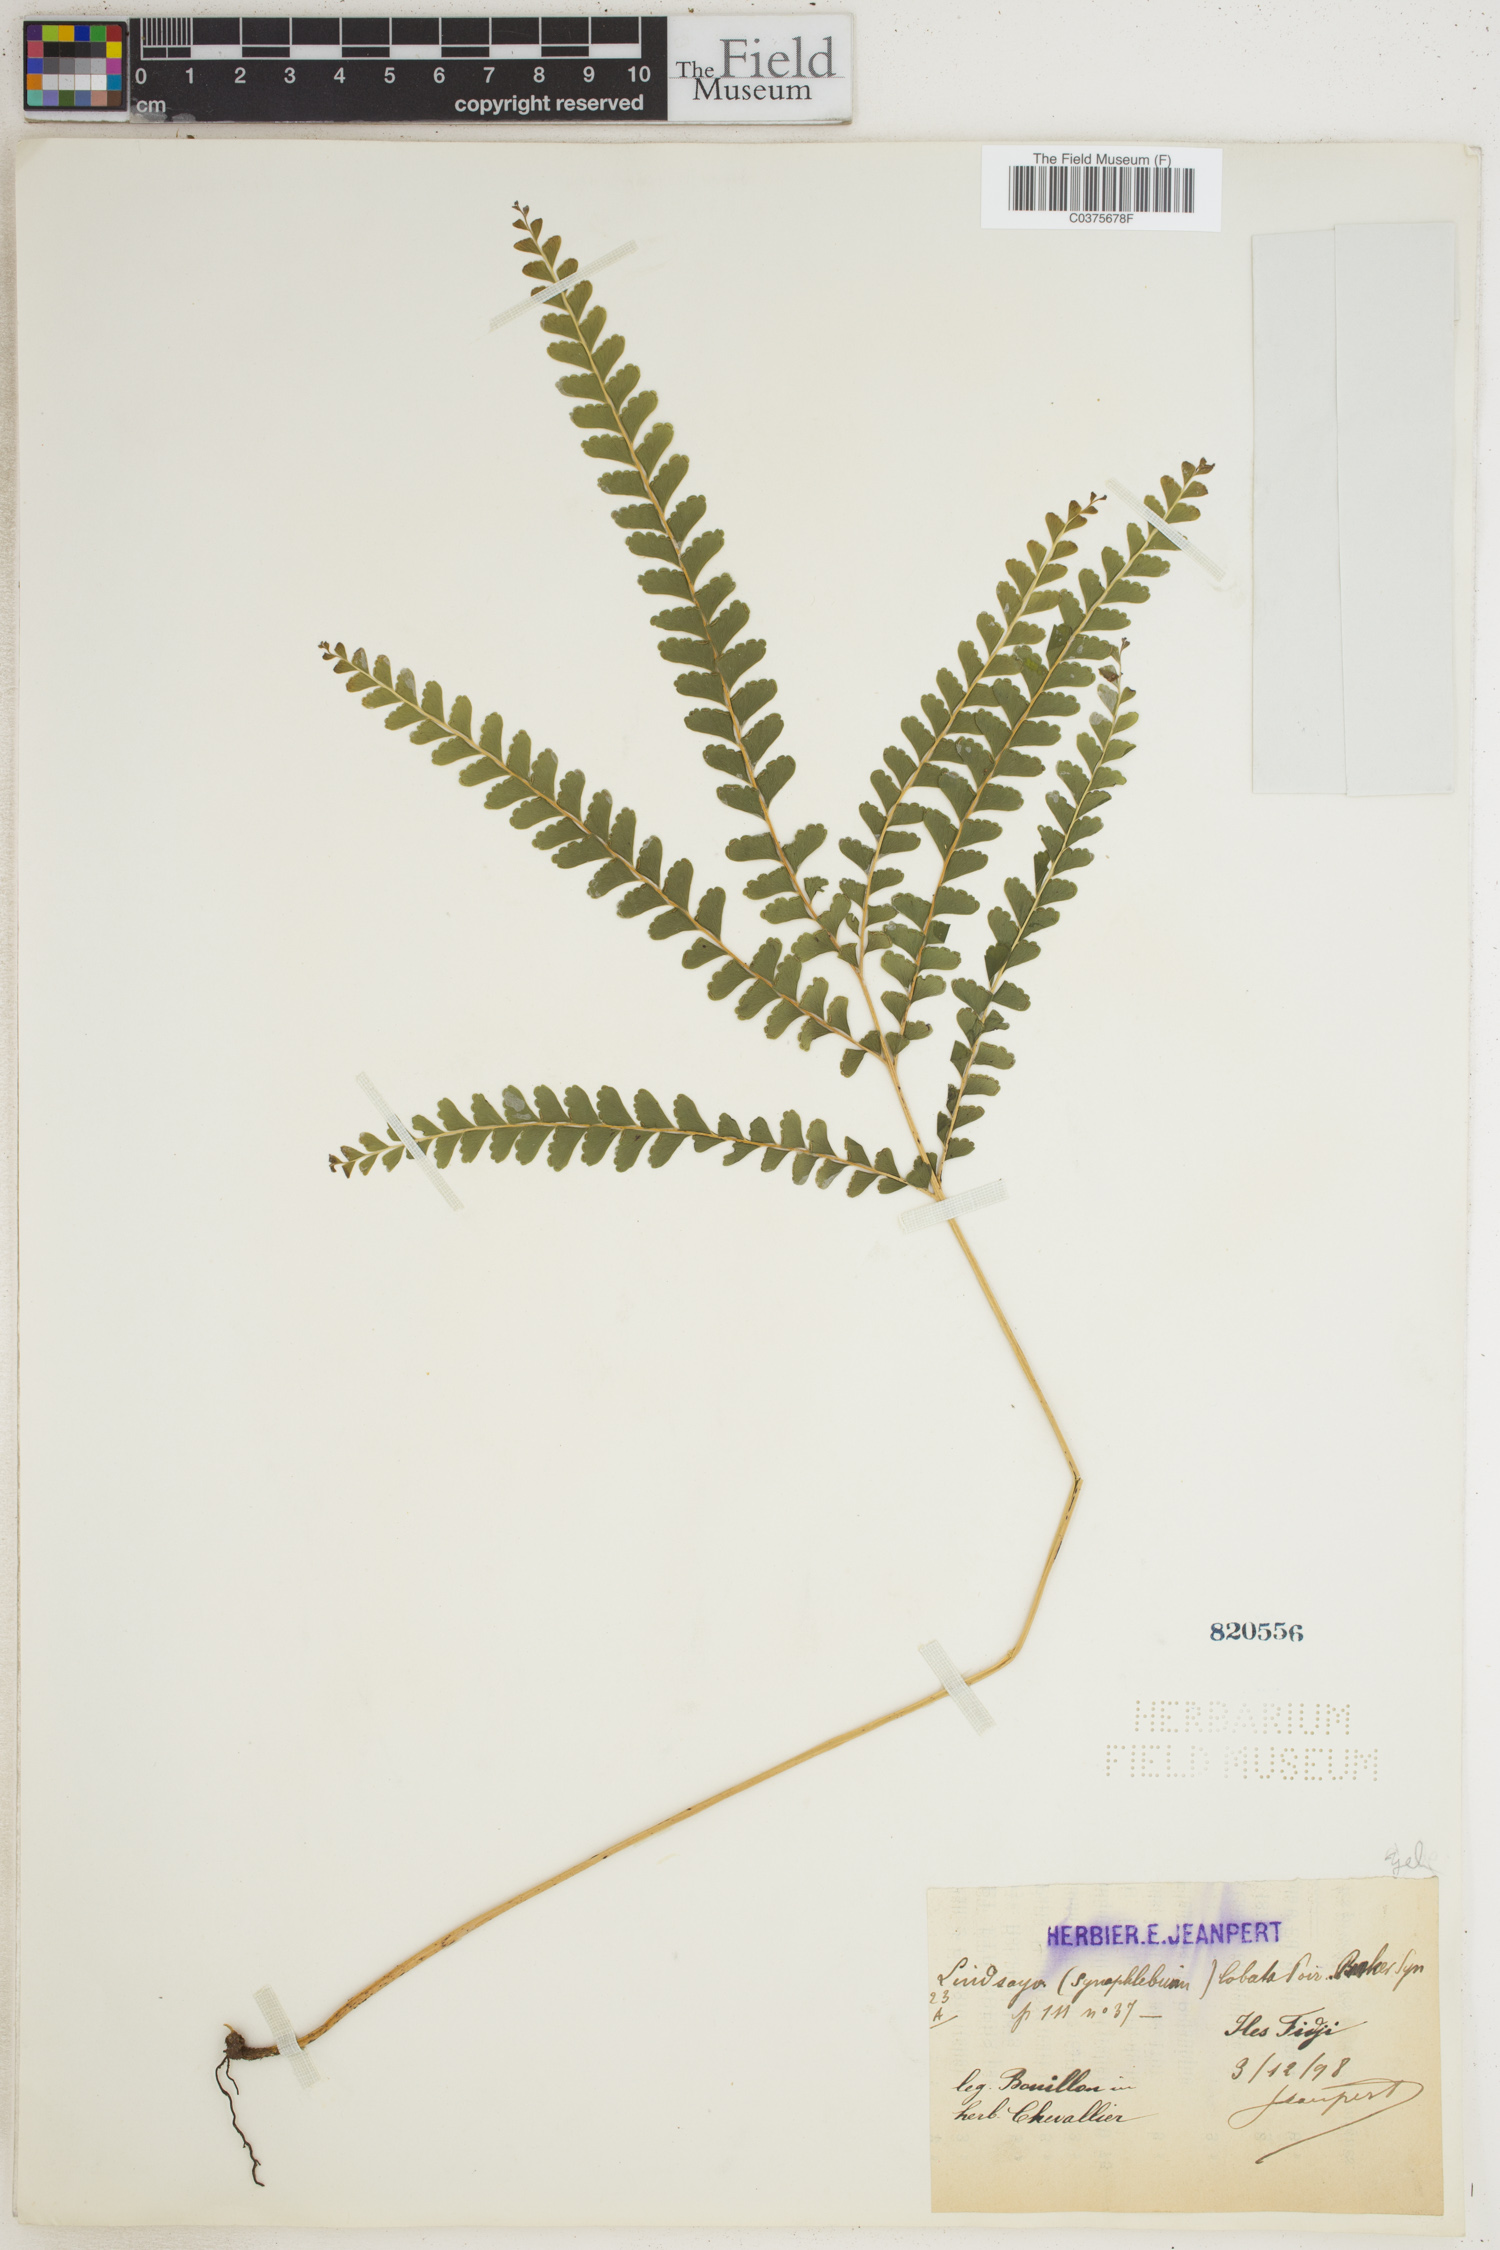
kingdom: Plantae
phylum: Tracheophyta
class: Polypodiopsida
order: Polypodiales
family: Lindsaeaceae
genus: Lindsaea
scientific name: Lindsaea lobata
